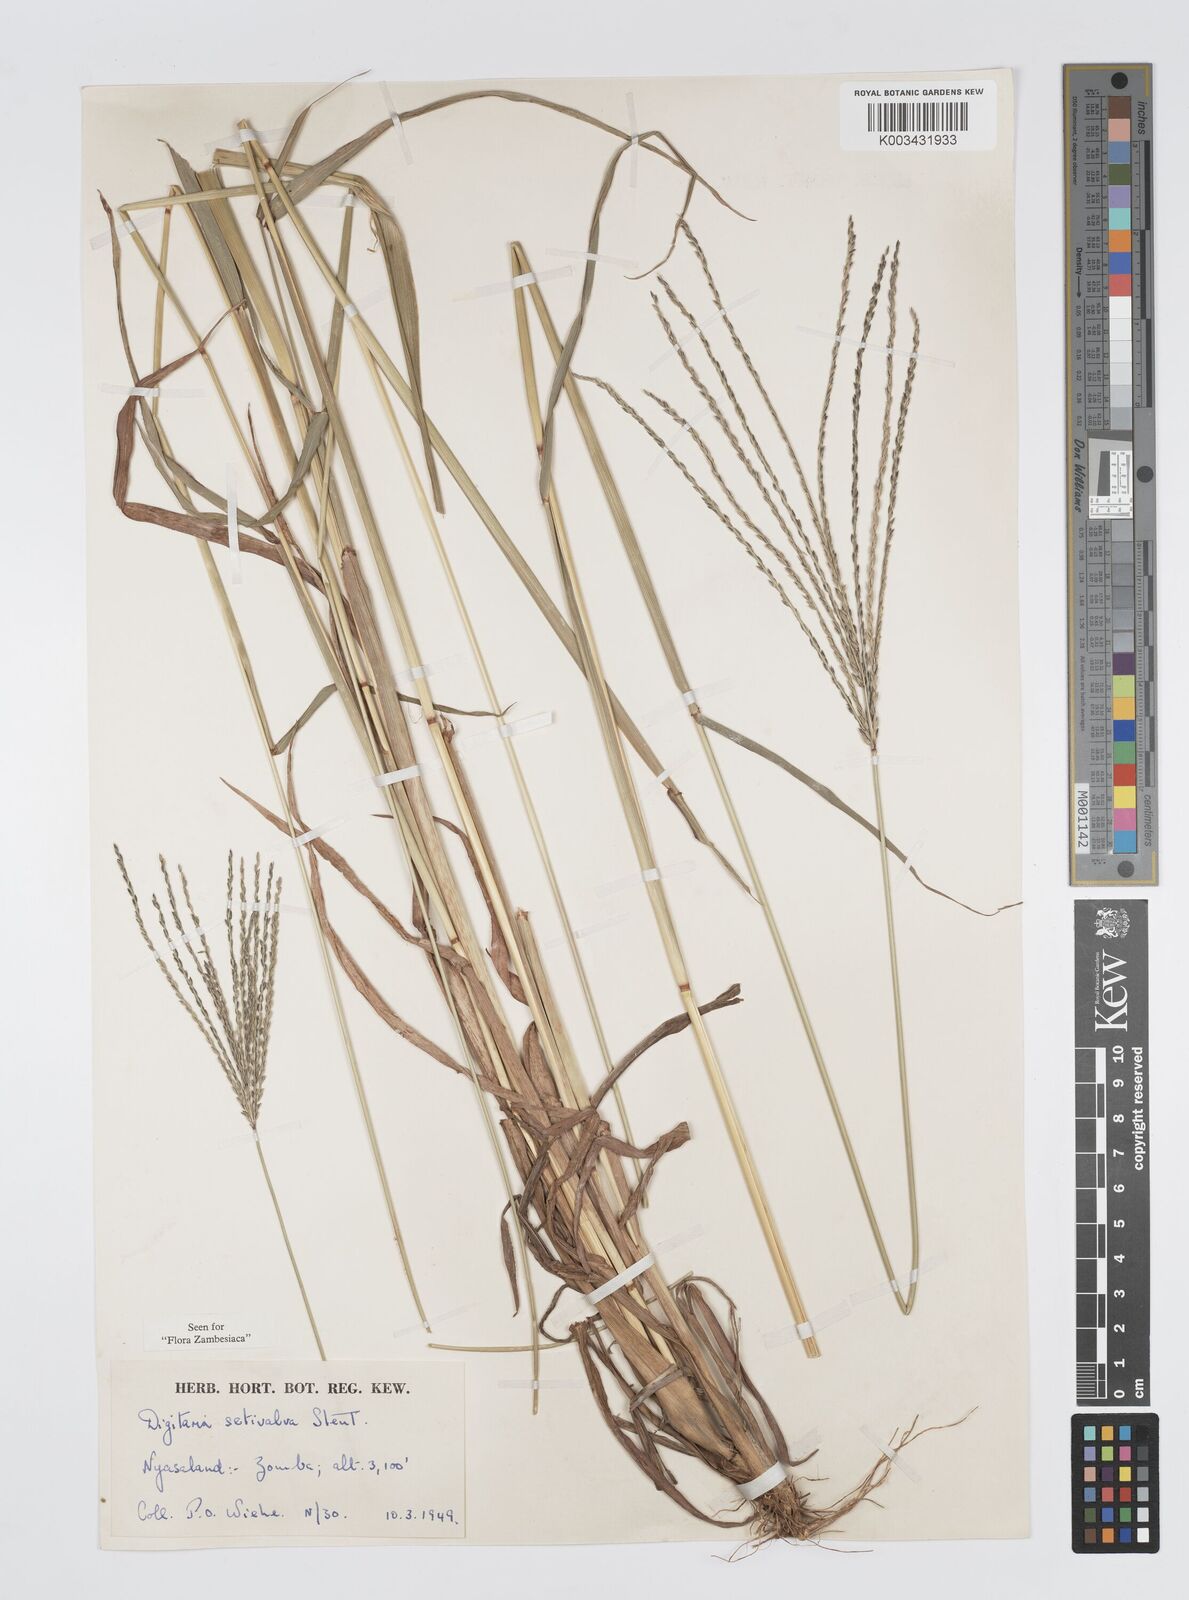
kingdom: Plantae
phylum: Tracheophyta
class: Liliopsida
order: Poales
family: Poaceae
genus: Digitaria
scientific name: Digitaria milanjiana
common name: Madagascar crabgrass
